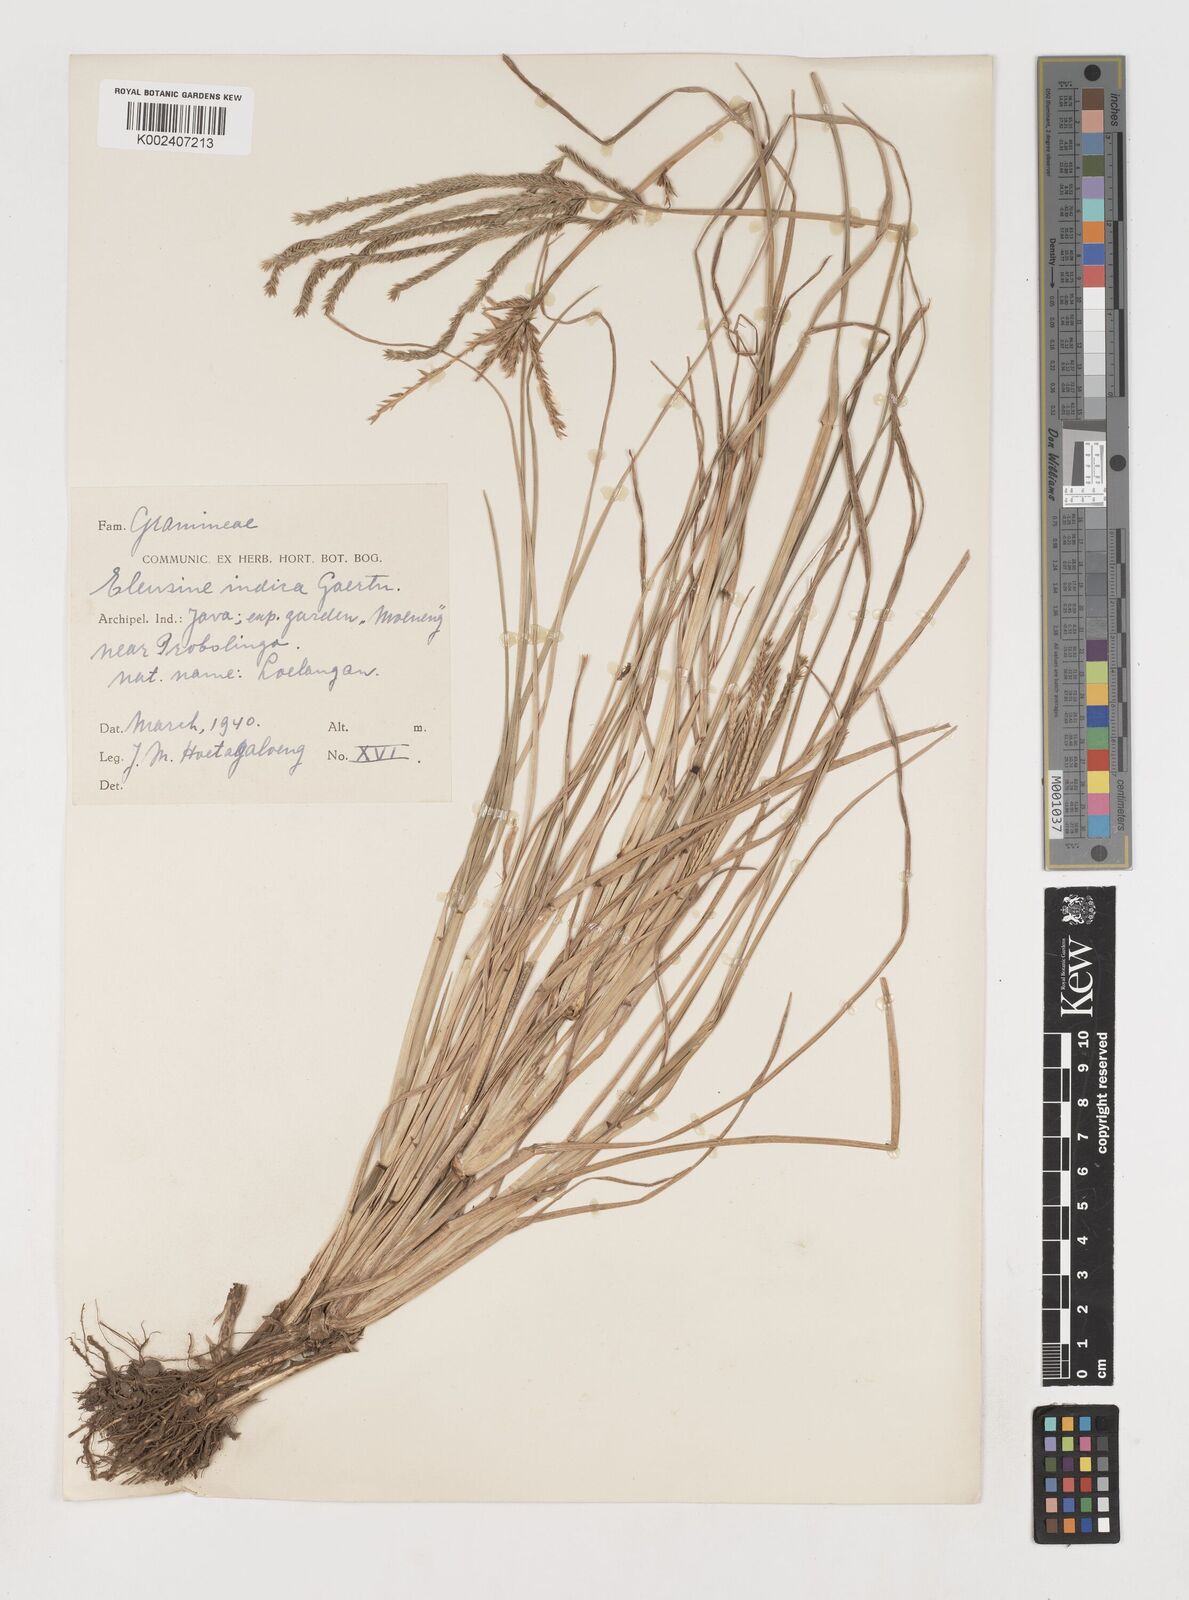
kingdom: Plantae
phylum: Tracheophyta
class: Liliopsida
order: Poales
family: Poaceae
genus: Eleusine
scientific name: Eleusine indica
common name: Yard-grass
